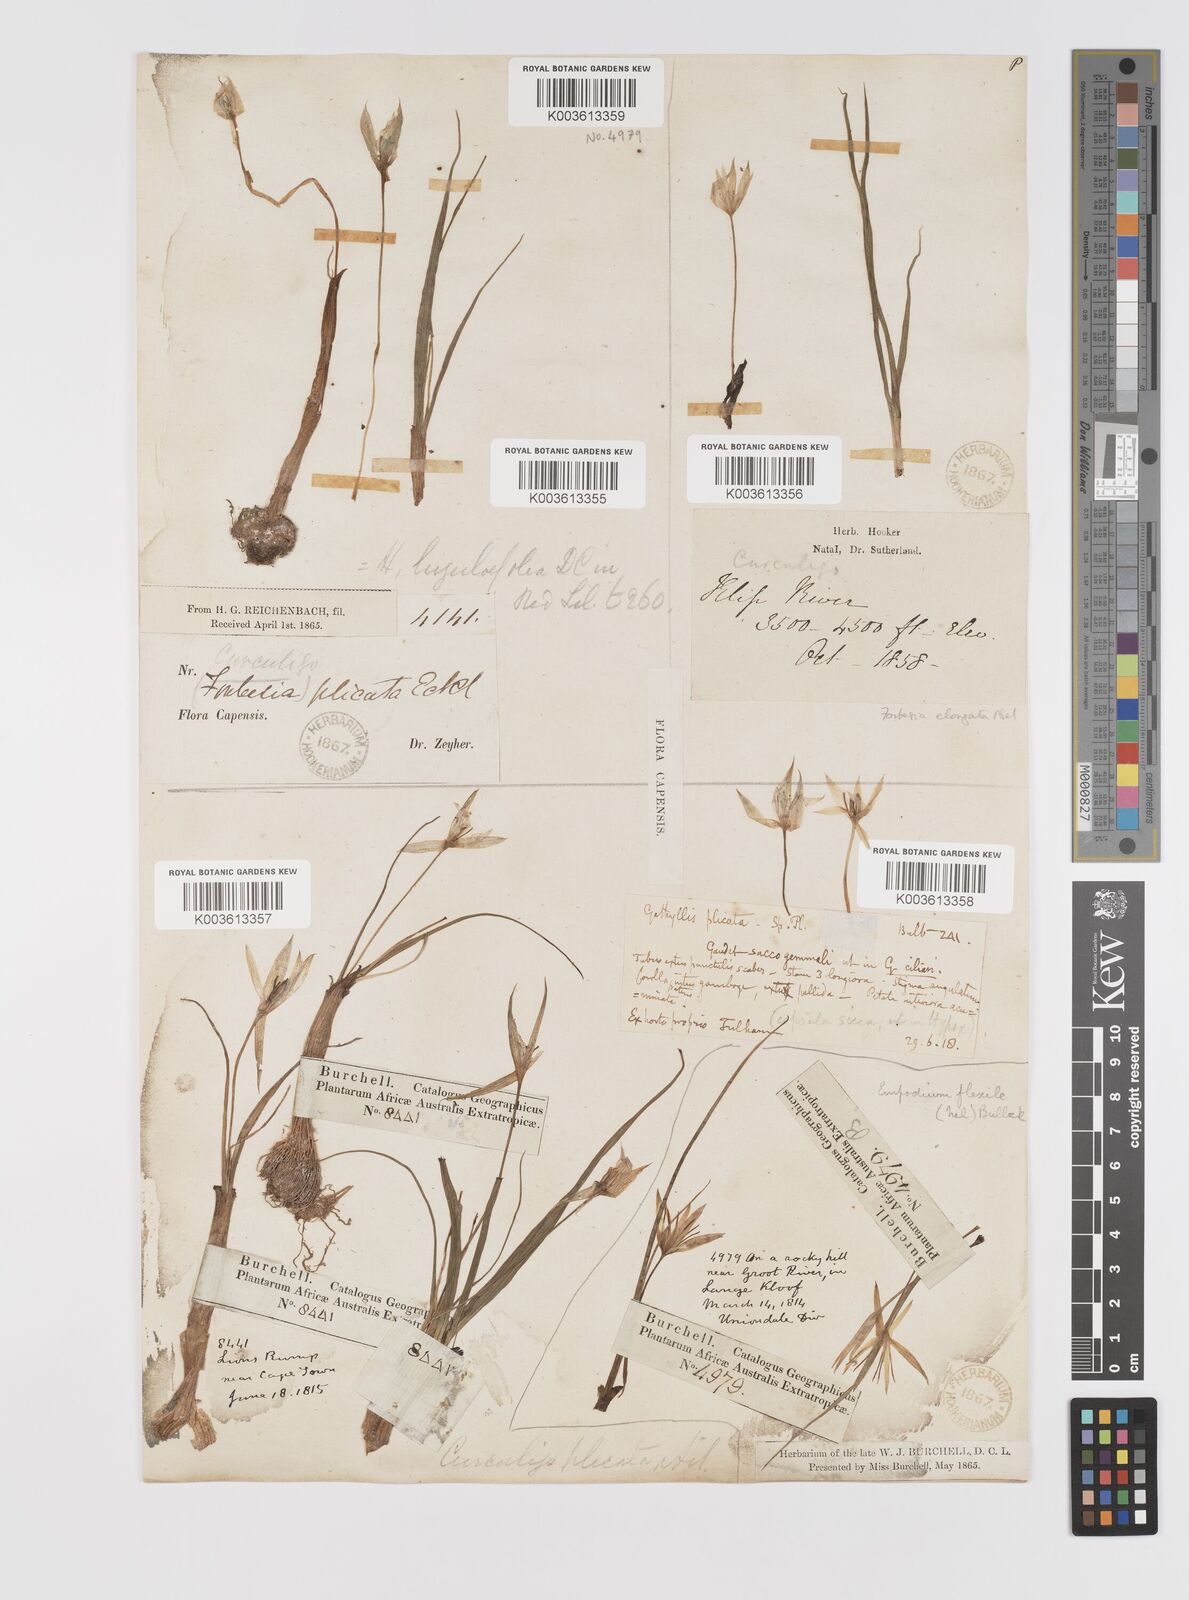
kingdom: Plantae
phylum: Tracheophyta
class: Liliopsida
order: Asparagales
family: Hypoxidaceae
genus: Empodium
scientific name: Empodium plicatum
